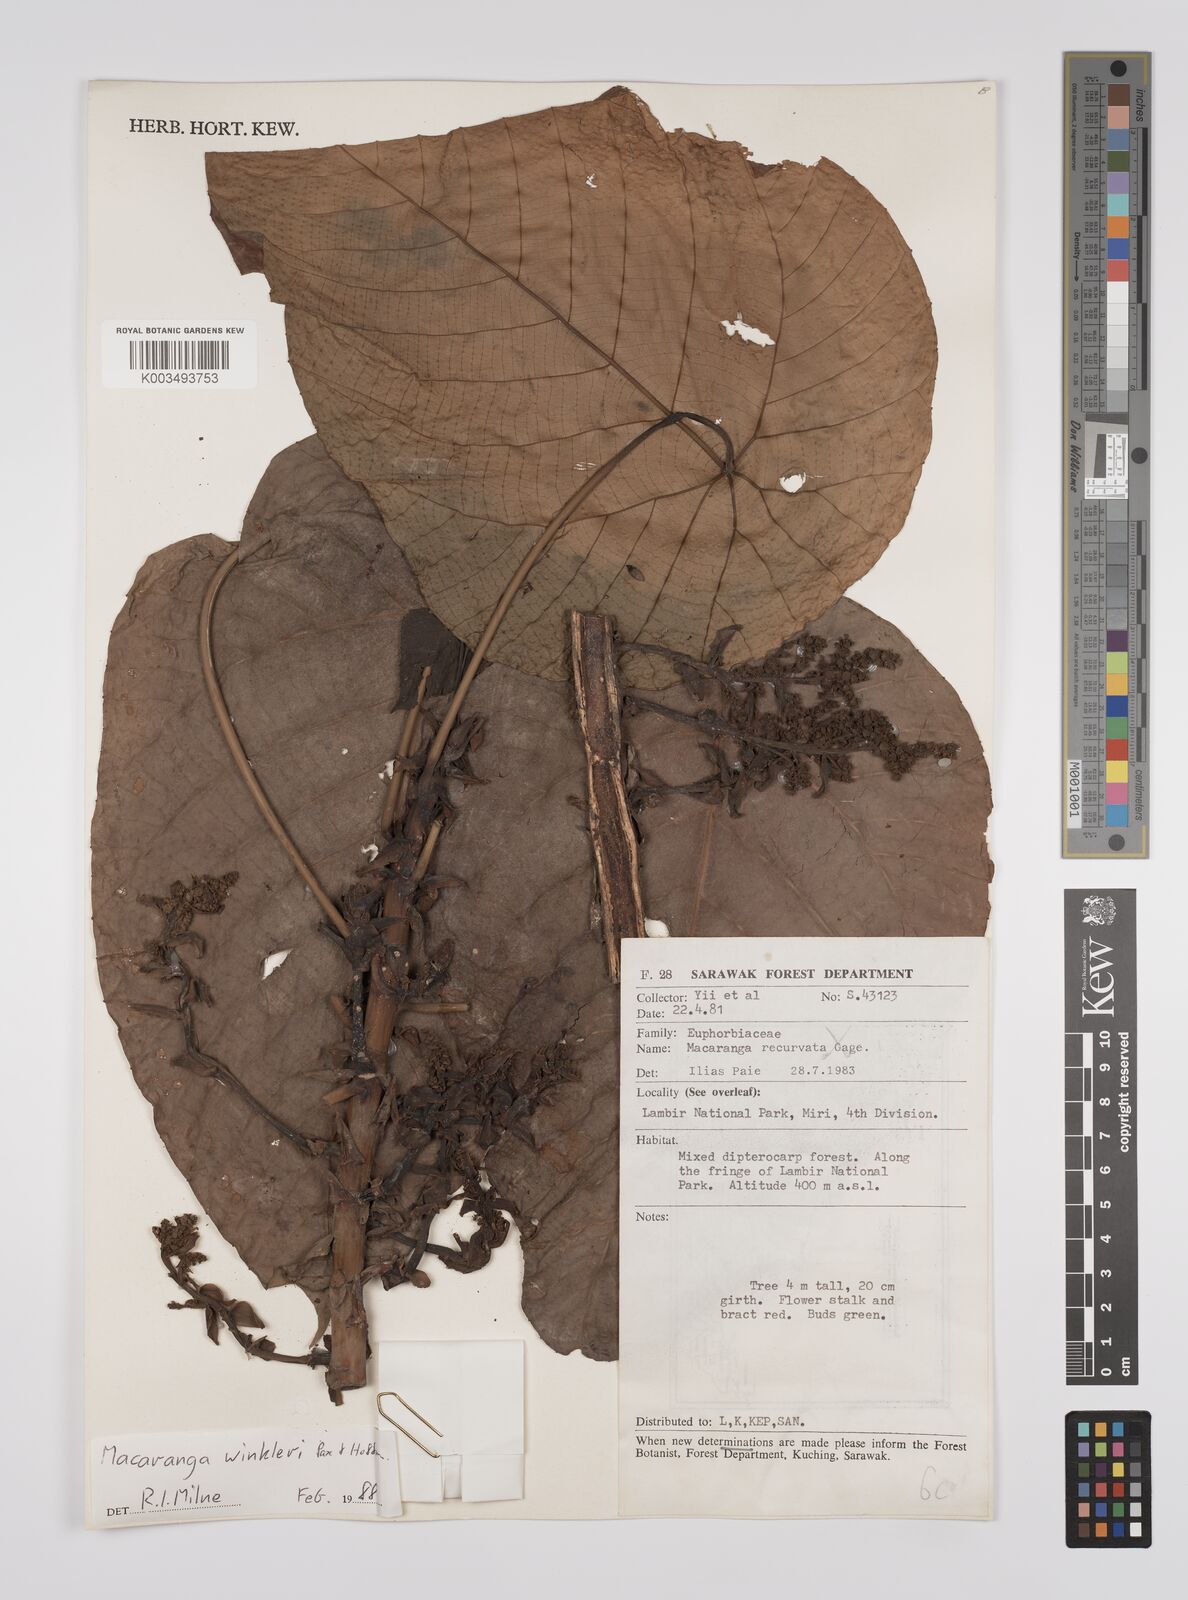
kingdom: Plantae
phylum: Tracheophyta
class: Magnoliopsida
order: Malpighiales
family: Euphorbiaceae
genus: Macaranga
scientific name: Macaranga winkleri
